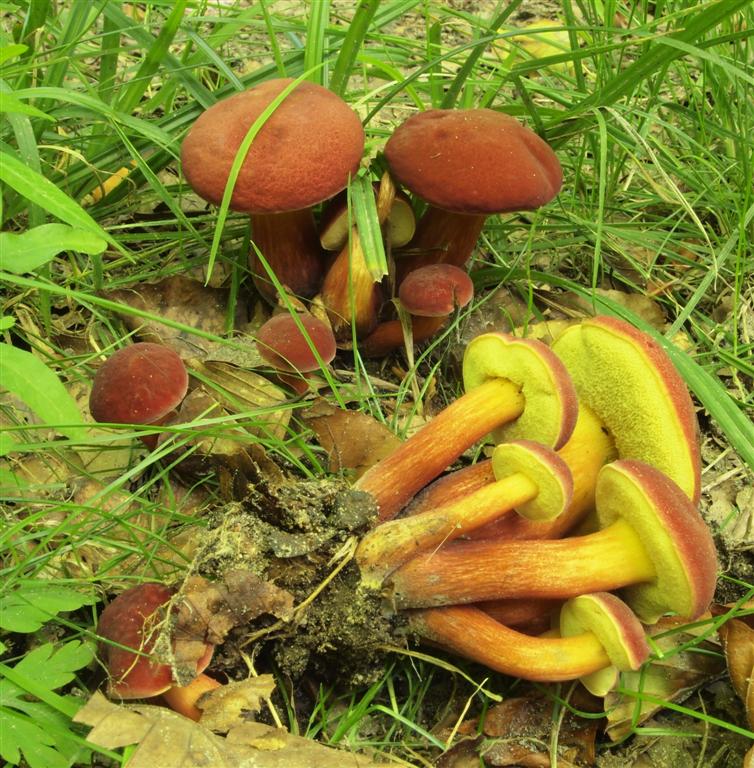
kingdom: Fungi
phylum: Basidiomycota
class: Agaricomycetes
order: Boletales
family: Boletaceae
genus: Hortiboletus
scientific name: Hortiboletus rubellus
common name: blodrød rørhat
